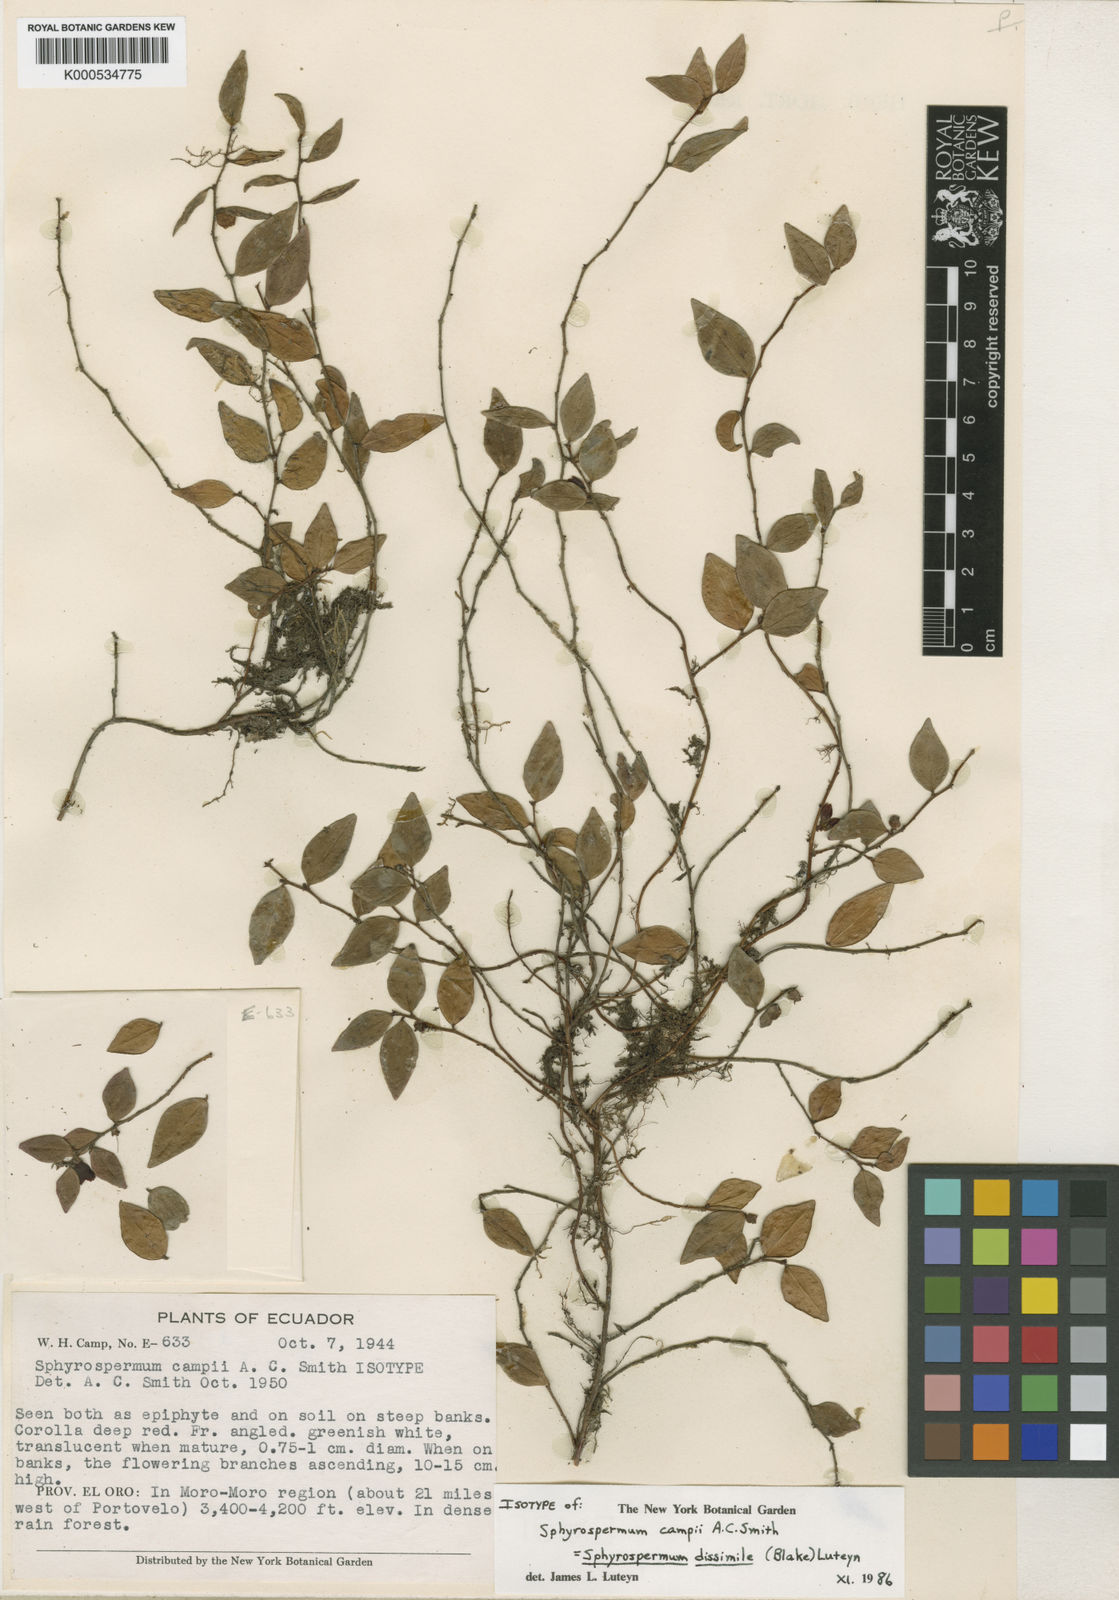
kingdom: Plantae
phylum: Tracheophyta
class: Magnoliopsida
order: Ericales
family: Ericaceae
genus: Sphyrospermum
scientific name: Sphyrospermum dissimile
